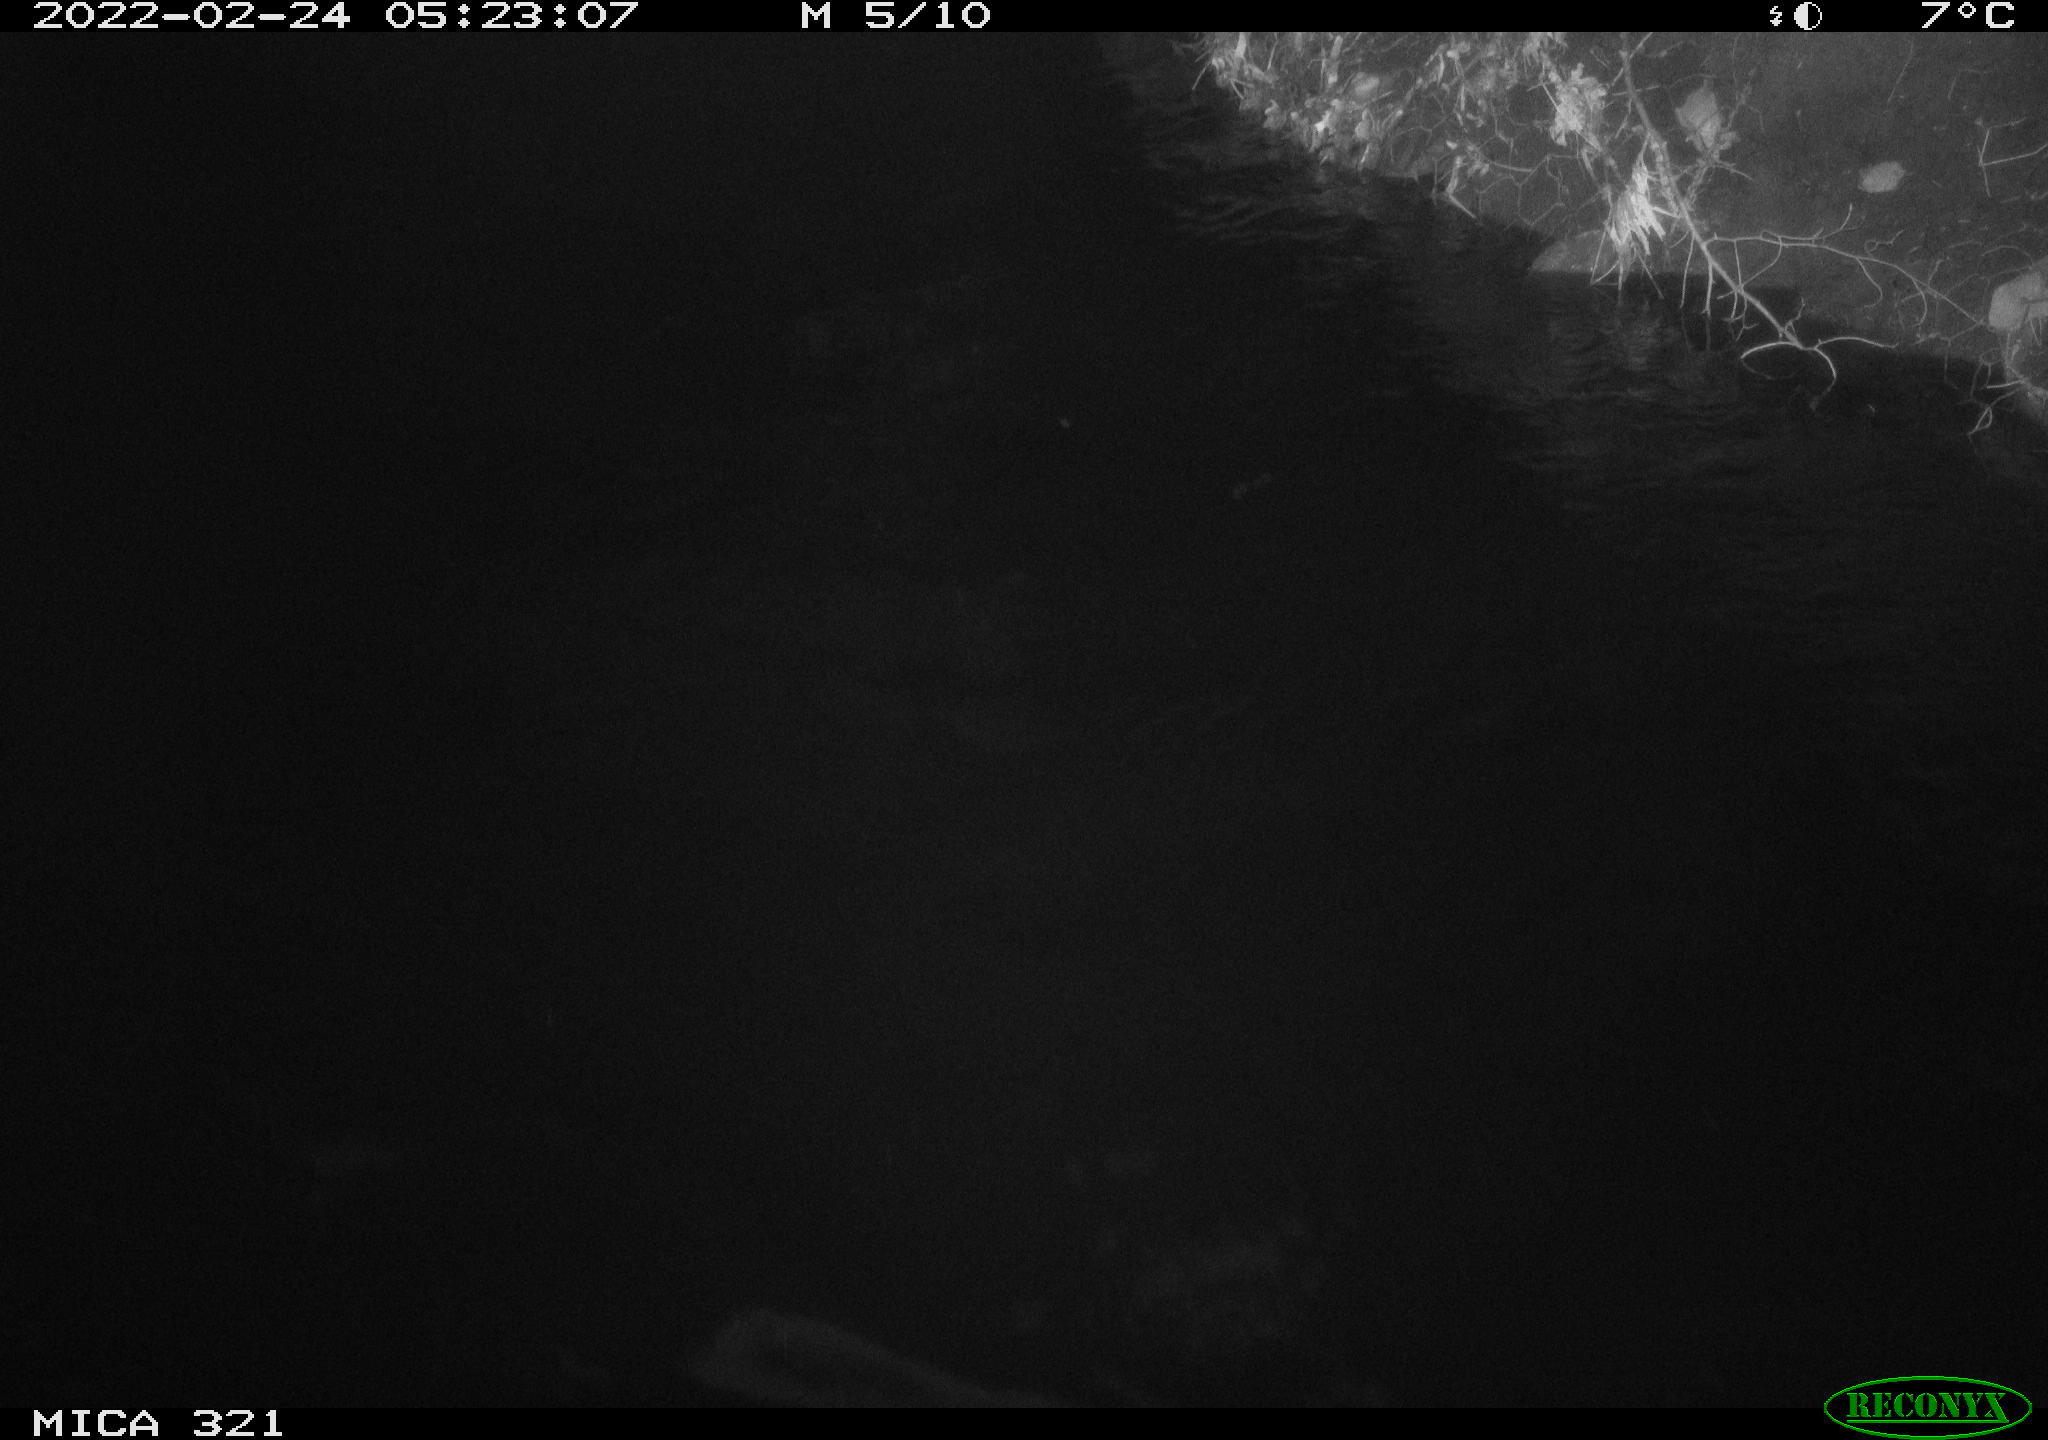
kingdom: Animalia
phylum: Chordata
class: Aves
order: Anseriformes
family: Anatidae
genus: Anas
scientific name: Anas platyrhynchos
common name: Mallard
